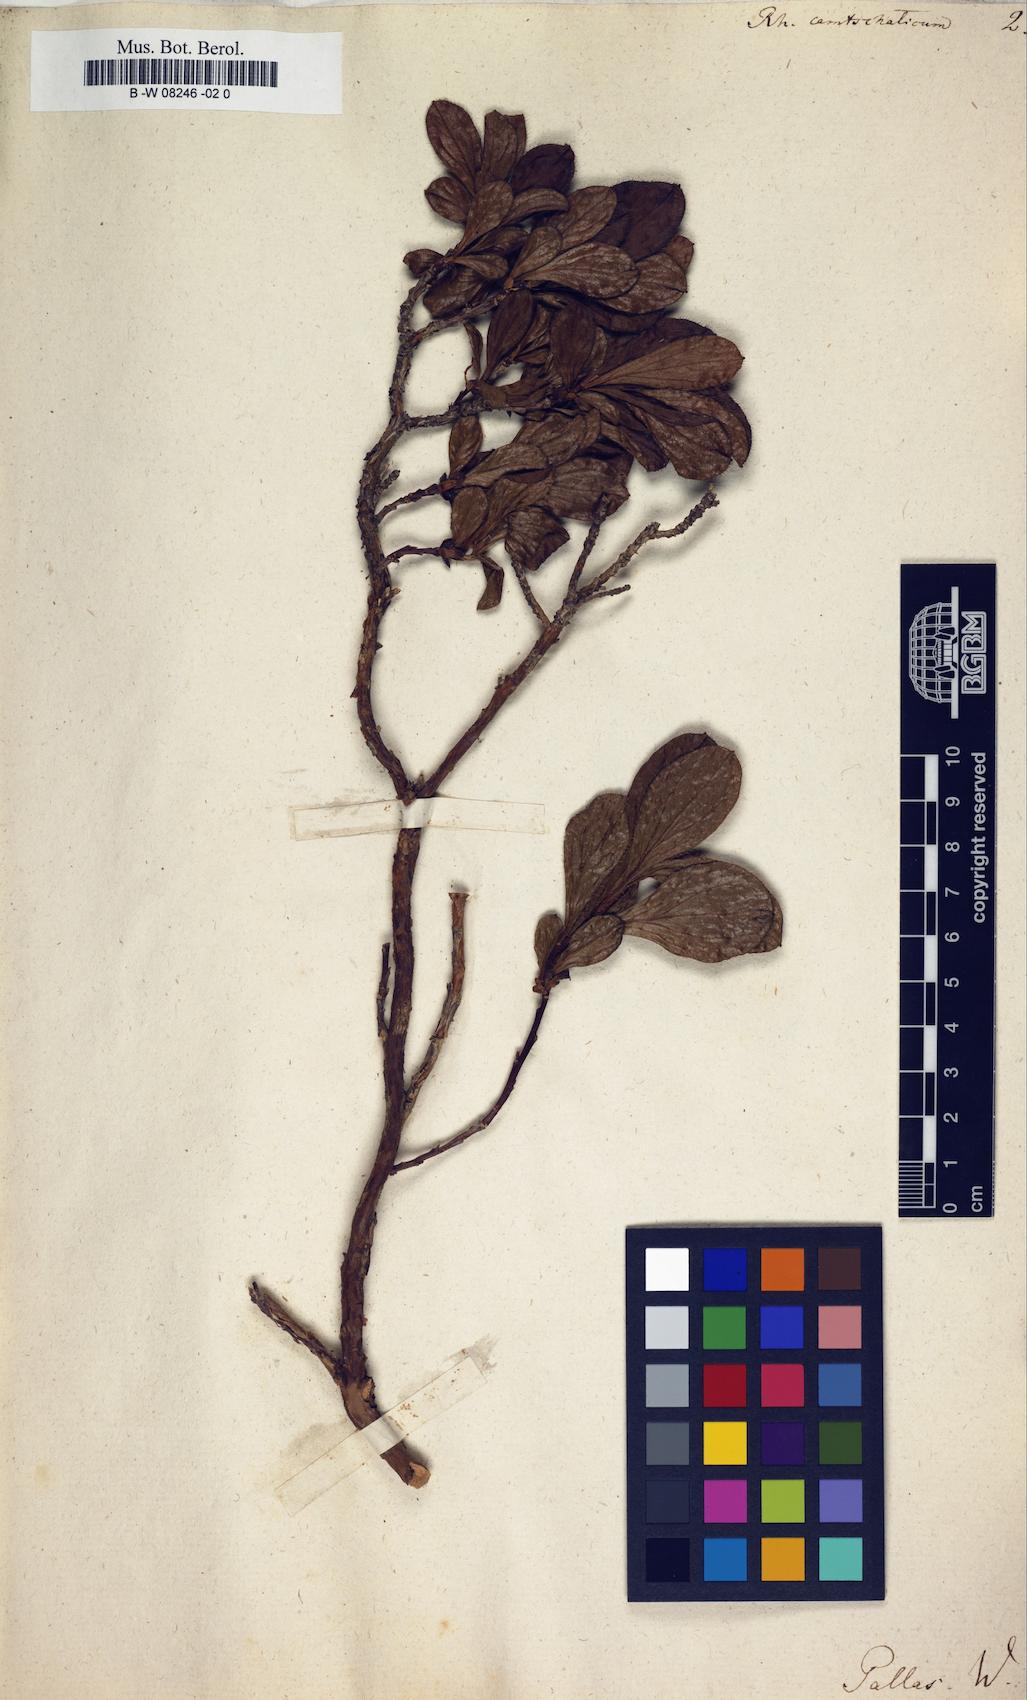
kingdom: Plantae
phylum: Tracheophyta
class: Magnoliopsida
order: Ericales
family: Ericaceae
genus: Rhododendron
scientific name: Rhododendron camtschaticum
